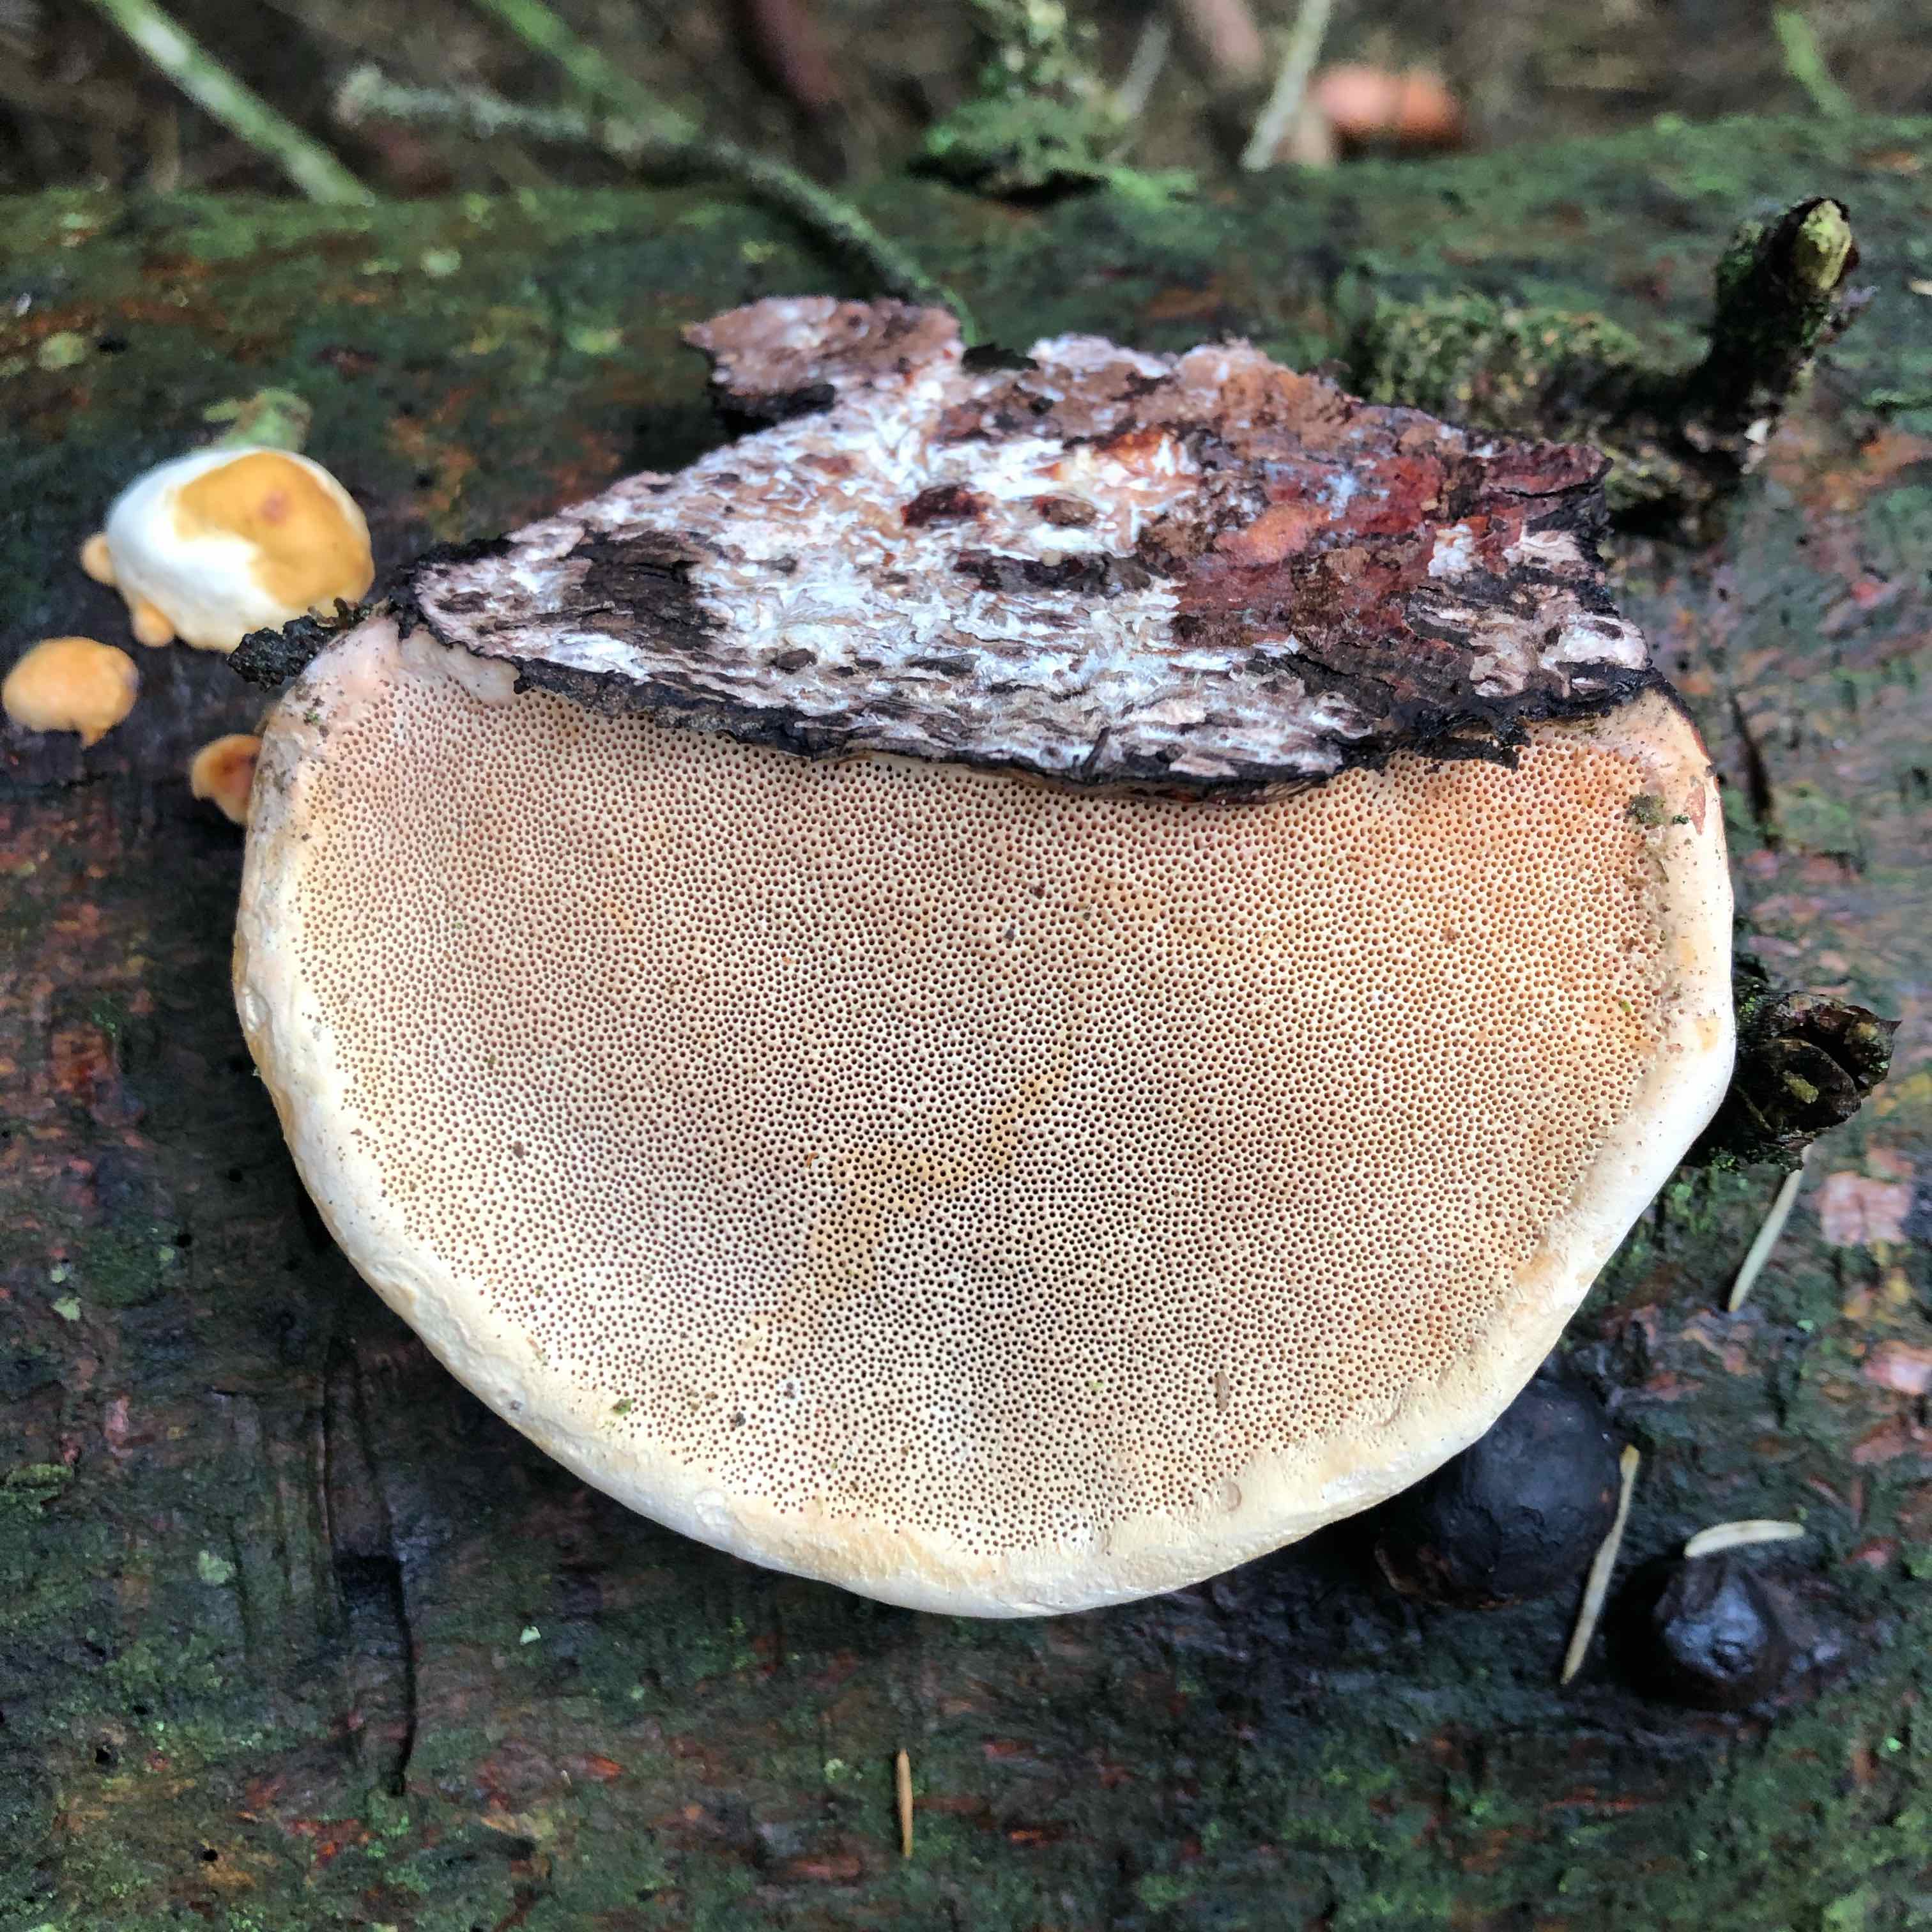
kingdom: Fungi
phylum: Basidiomycota
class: Agaricomycetes
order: Polyporales
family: Fomitopsidaceae
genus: Fomitopsis
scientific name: Fomitopsis pinicola
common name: randbæltet hovporesvamp
